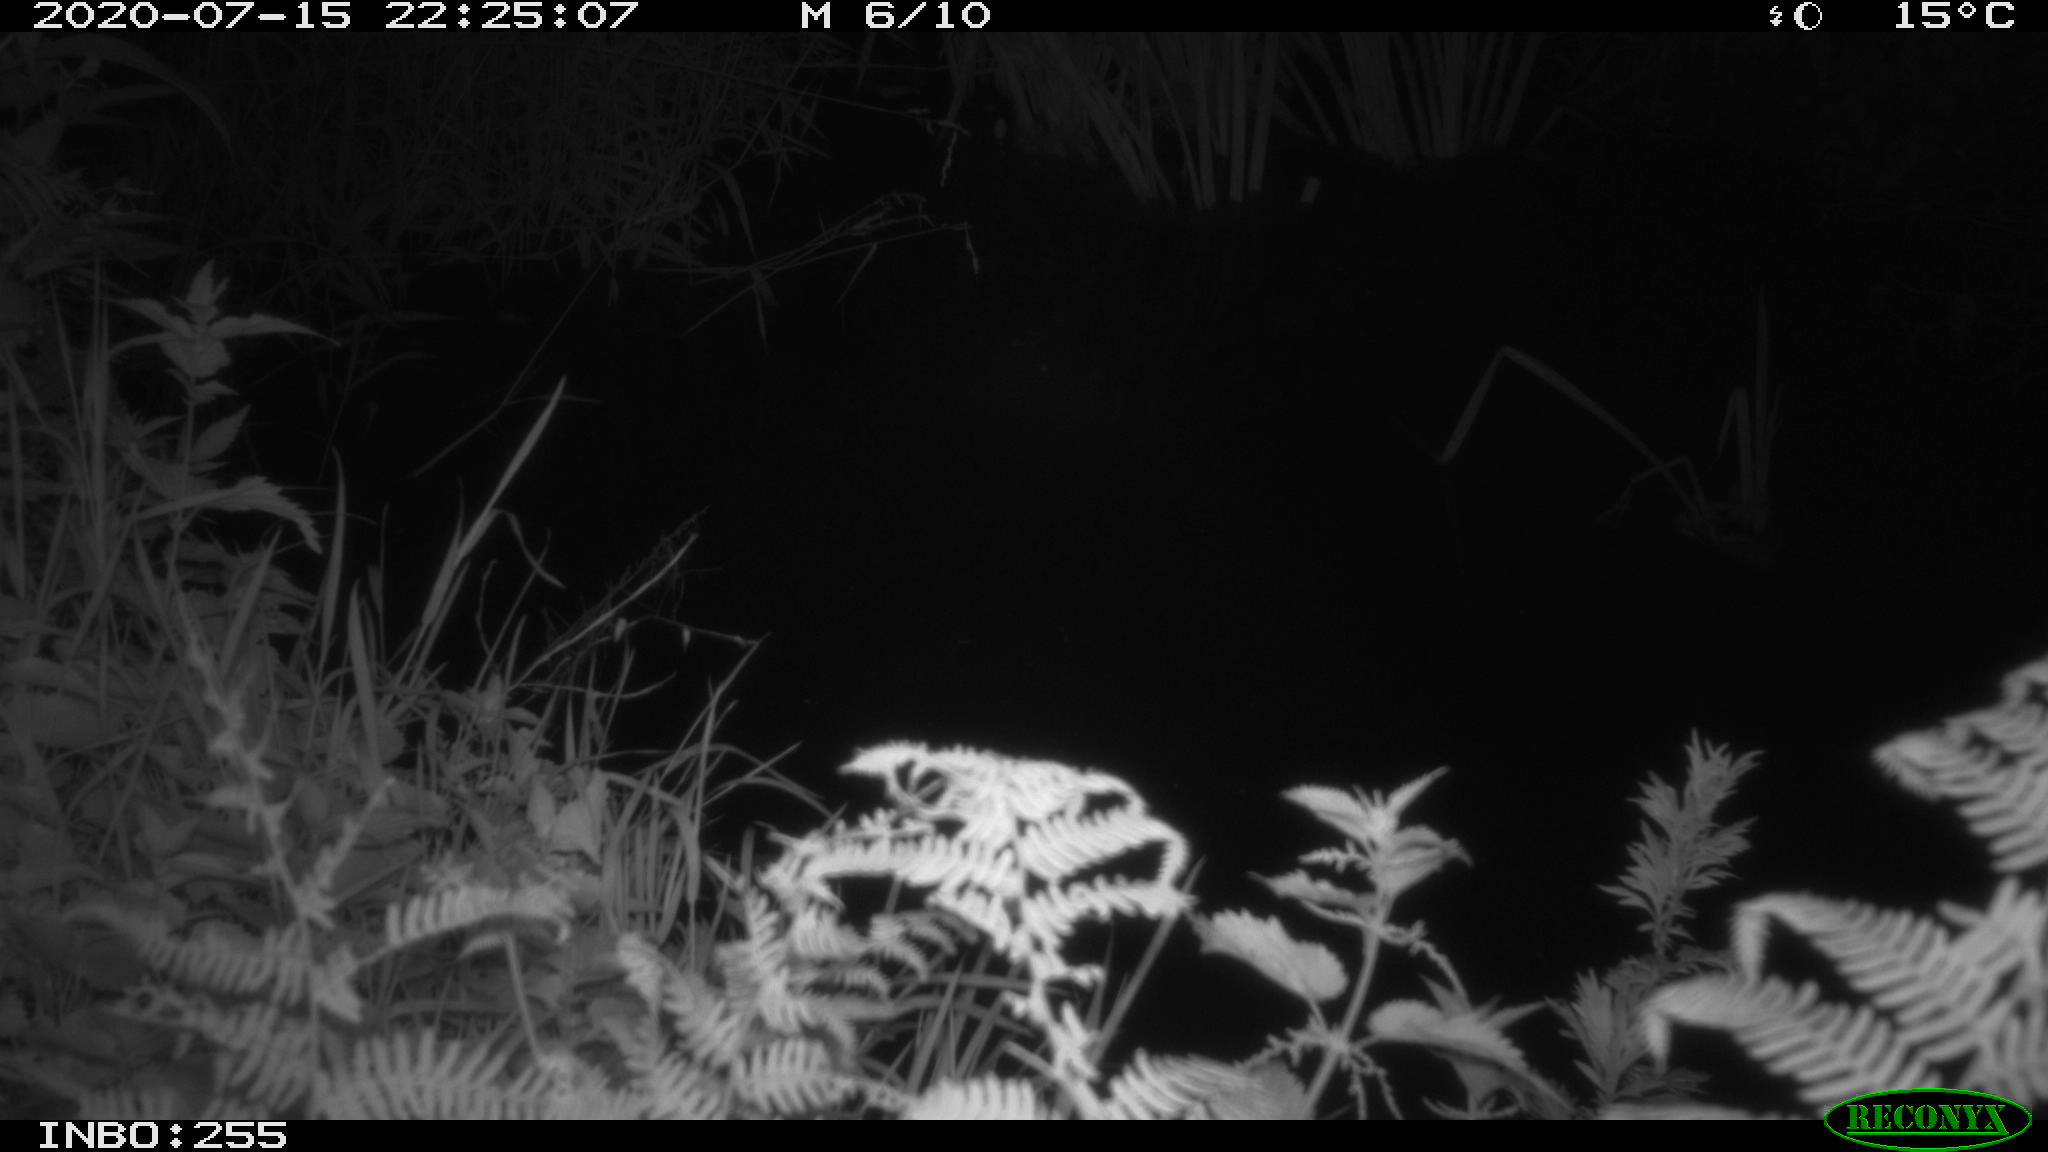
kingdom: Animalia
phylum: Chordata
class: Aves
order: Anseriformes
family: Anatidae
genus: Anas
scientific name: Anas platyrhynchos
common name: Mallard
